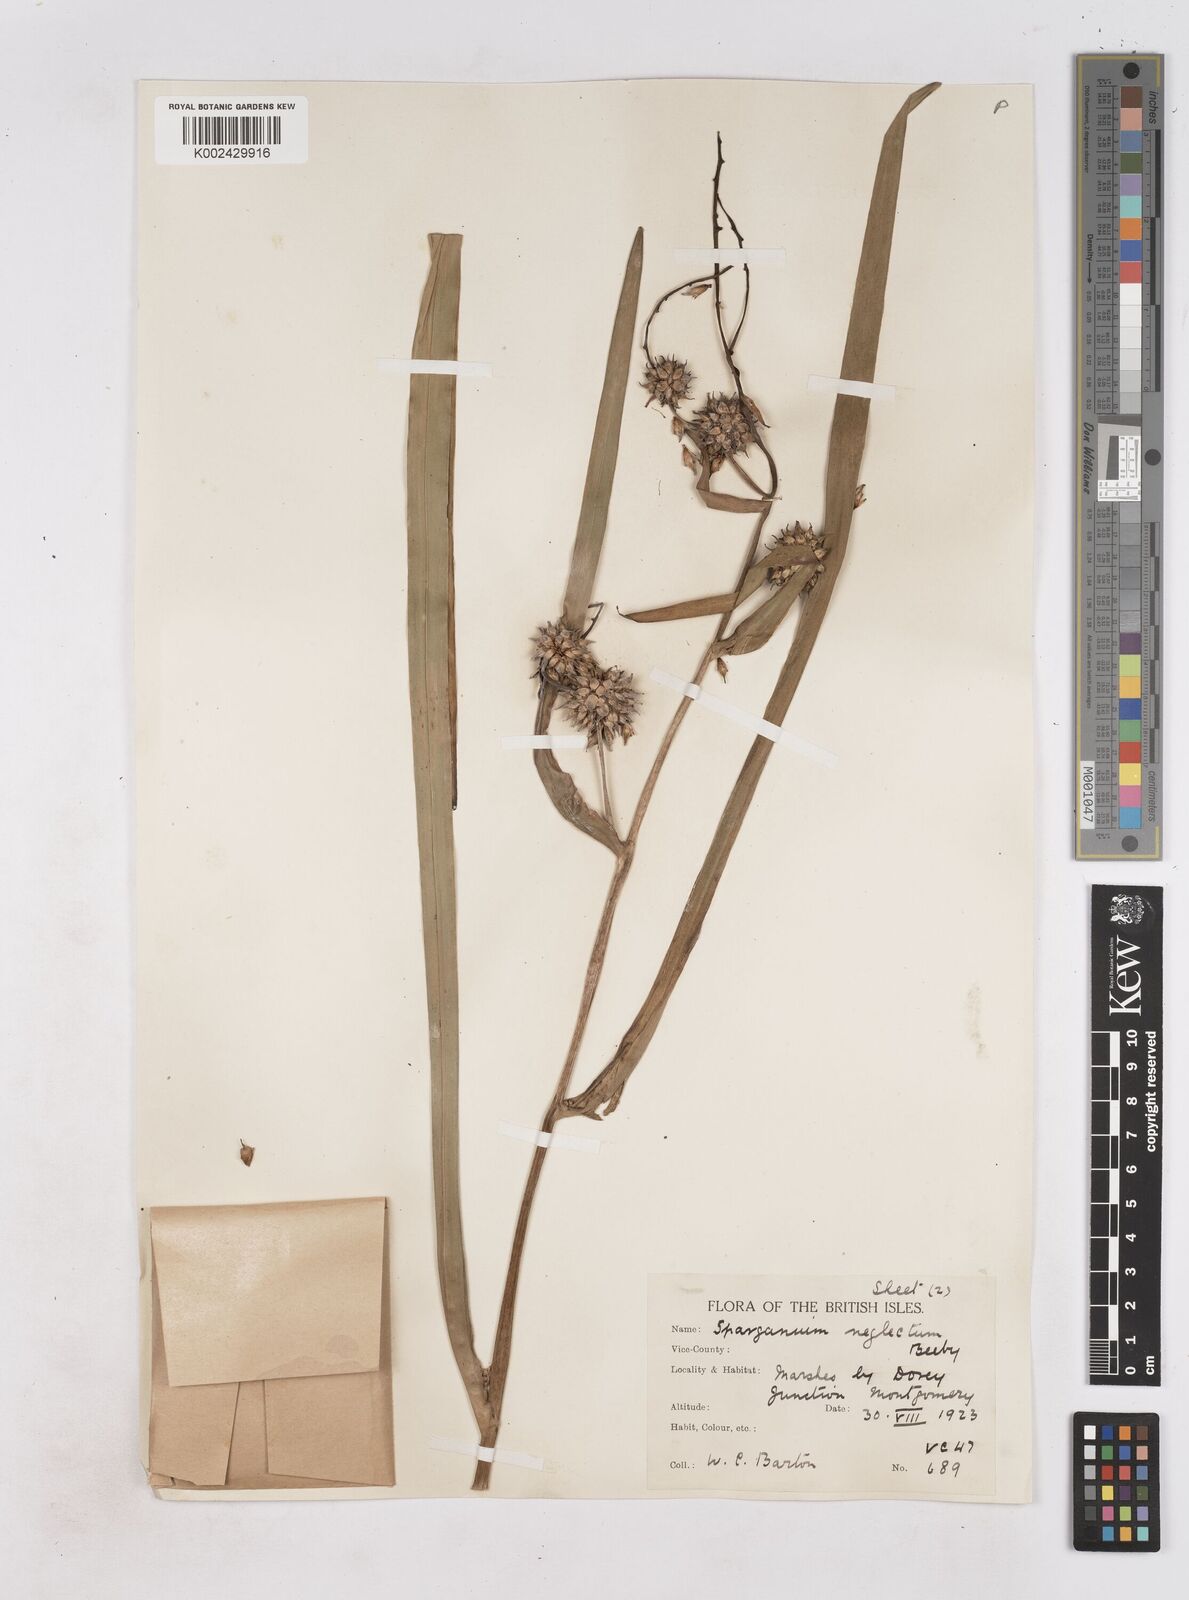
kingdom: Plantae
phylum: Tracheophyta
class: Liliopsida
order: Poales
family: Typhaceae
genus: Sparganium
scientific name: Sparganium erectum
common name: Branched bur-reed
